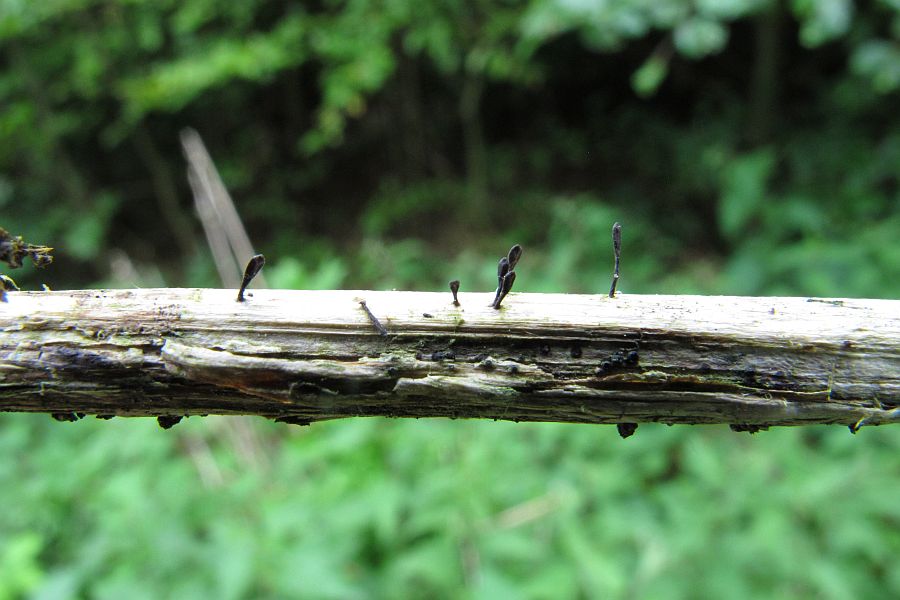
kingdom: Fungi
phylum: Ascomycota
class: Dothideomycetes
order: Acrospermales
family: Acrospermaceae
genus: Acrospermum
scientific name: Acrospermum compressum
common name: nælde-stængeltunge
